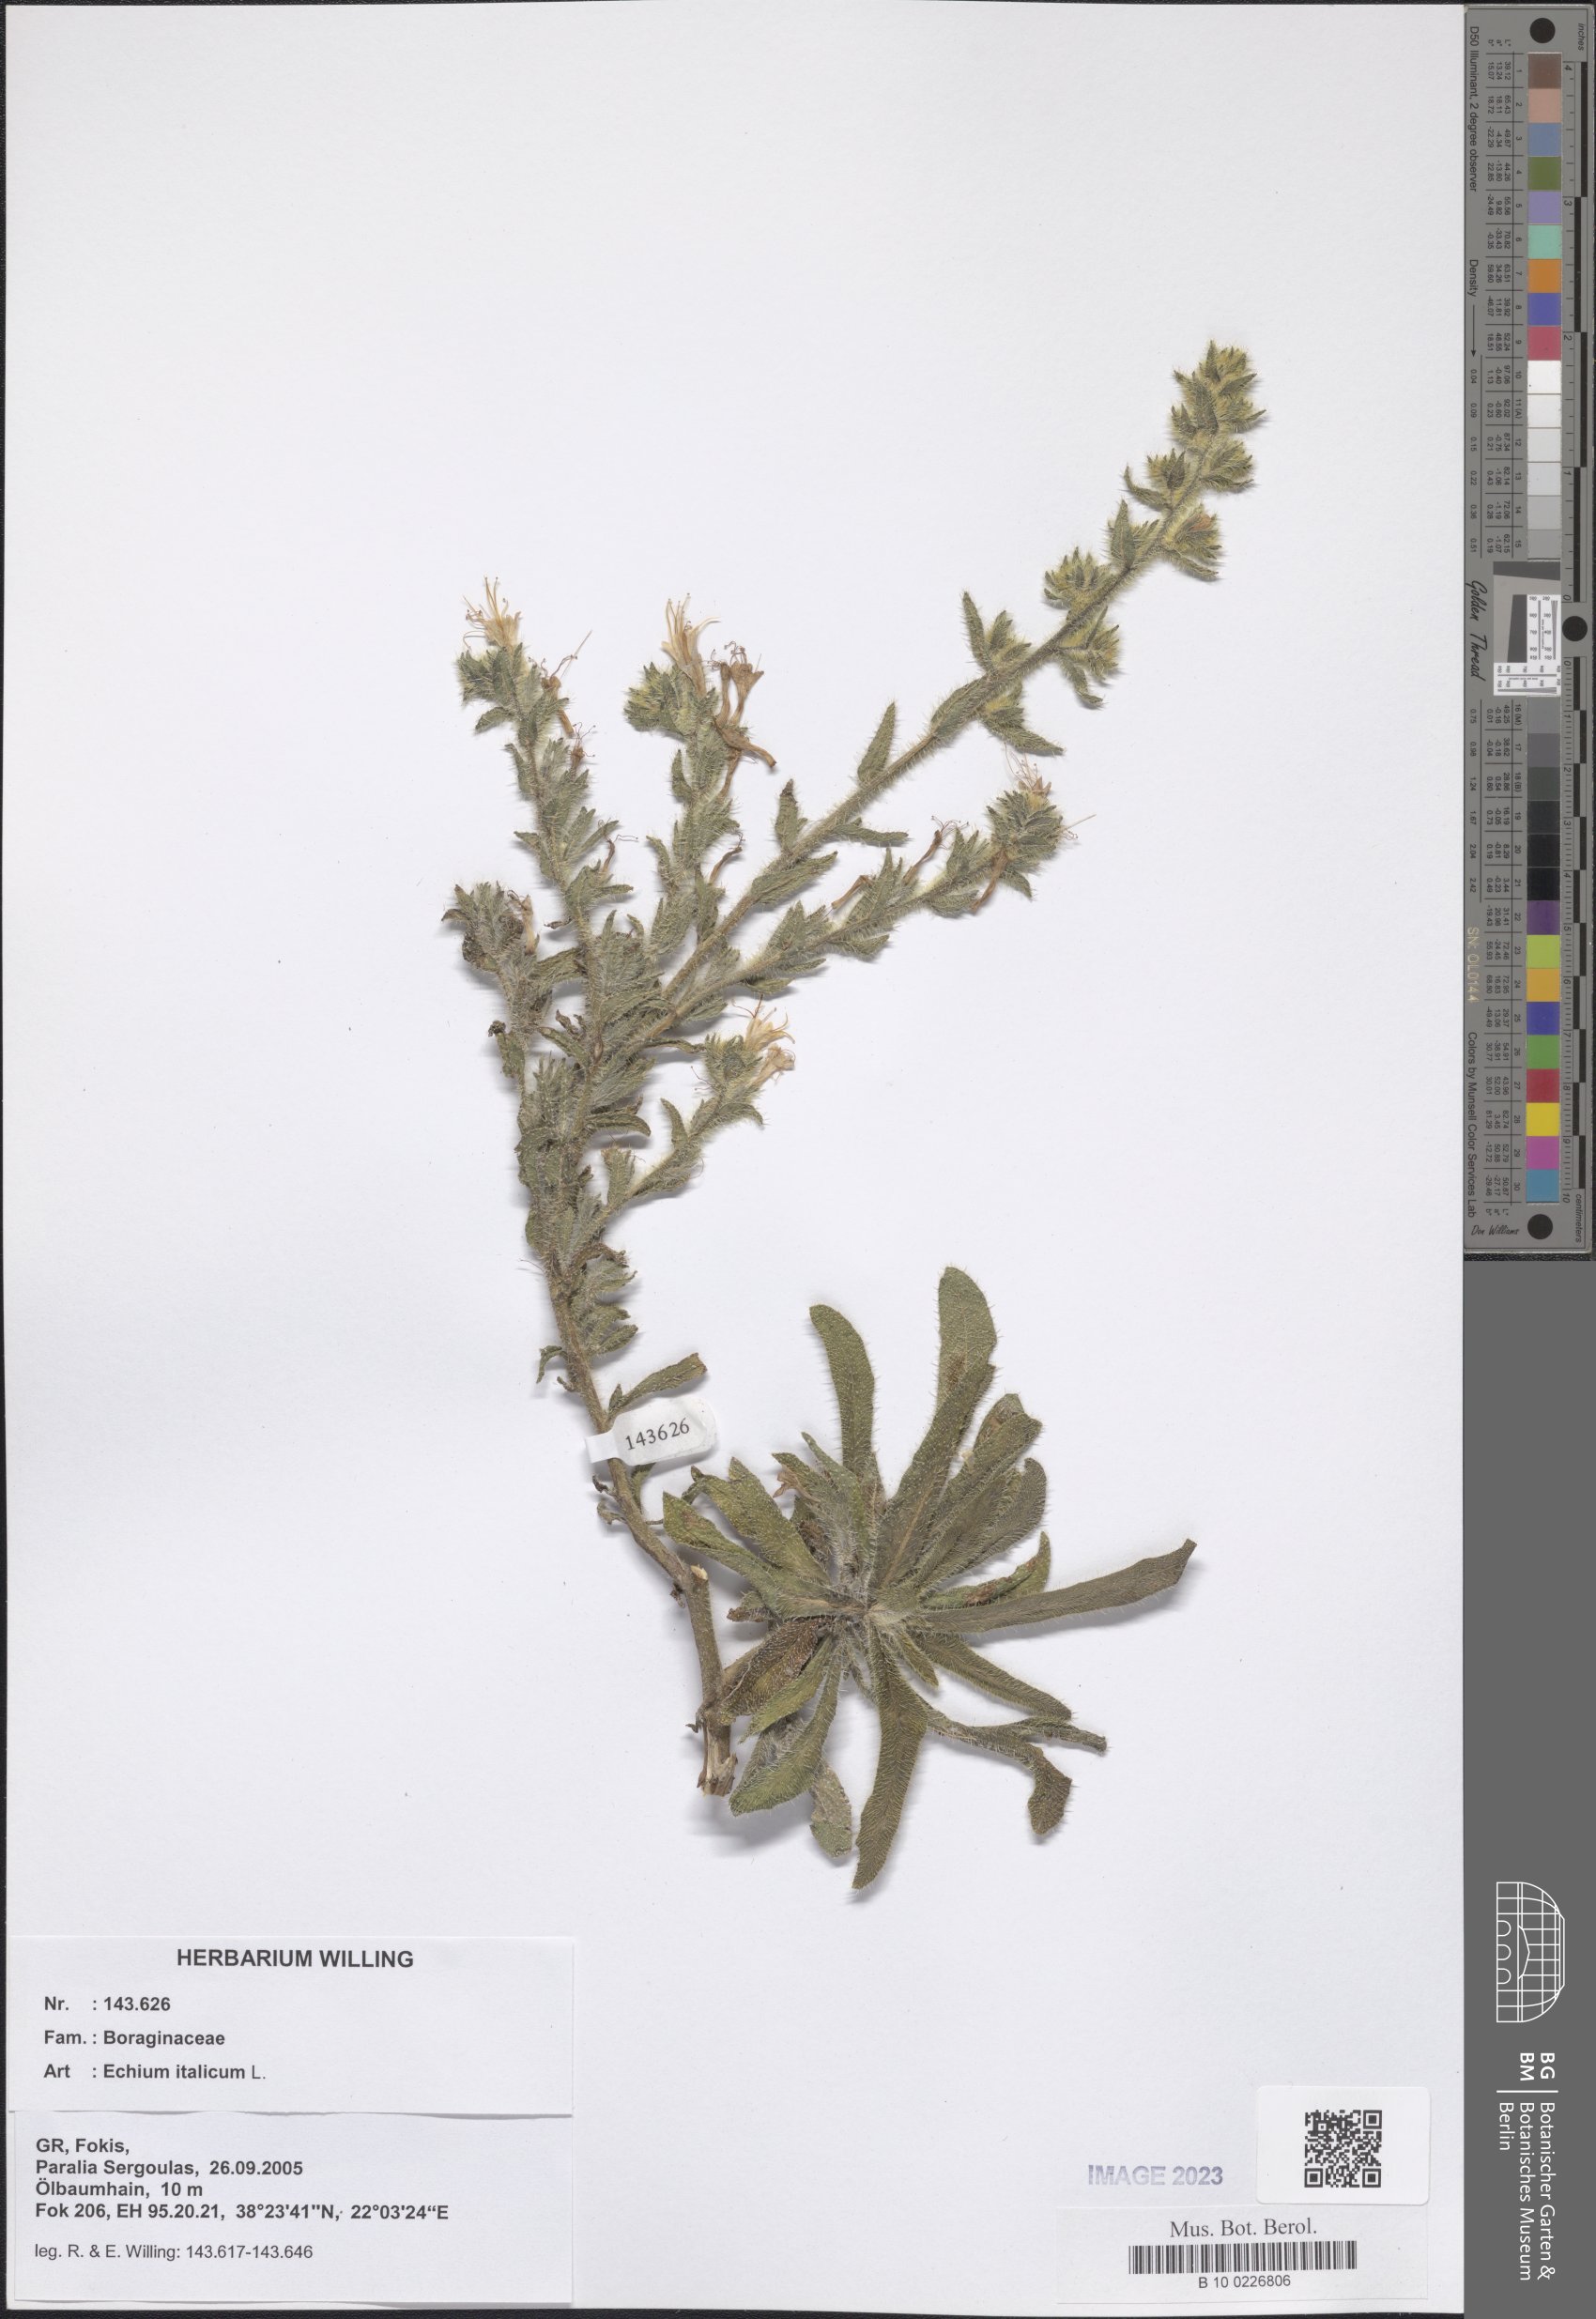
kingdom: Plantae
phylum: Tracheophyta
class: Magnoliopsida
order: Boraginales
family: Boraginaceae
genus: Echium
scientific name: Echium italicum
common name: Italian viper's bugloss
